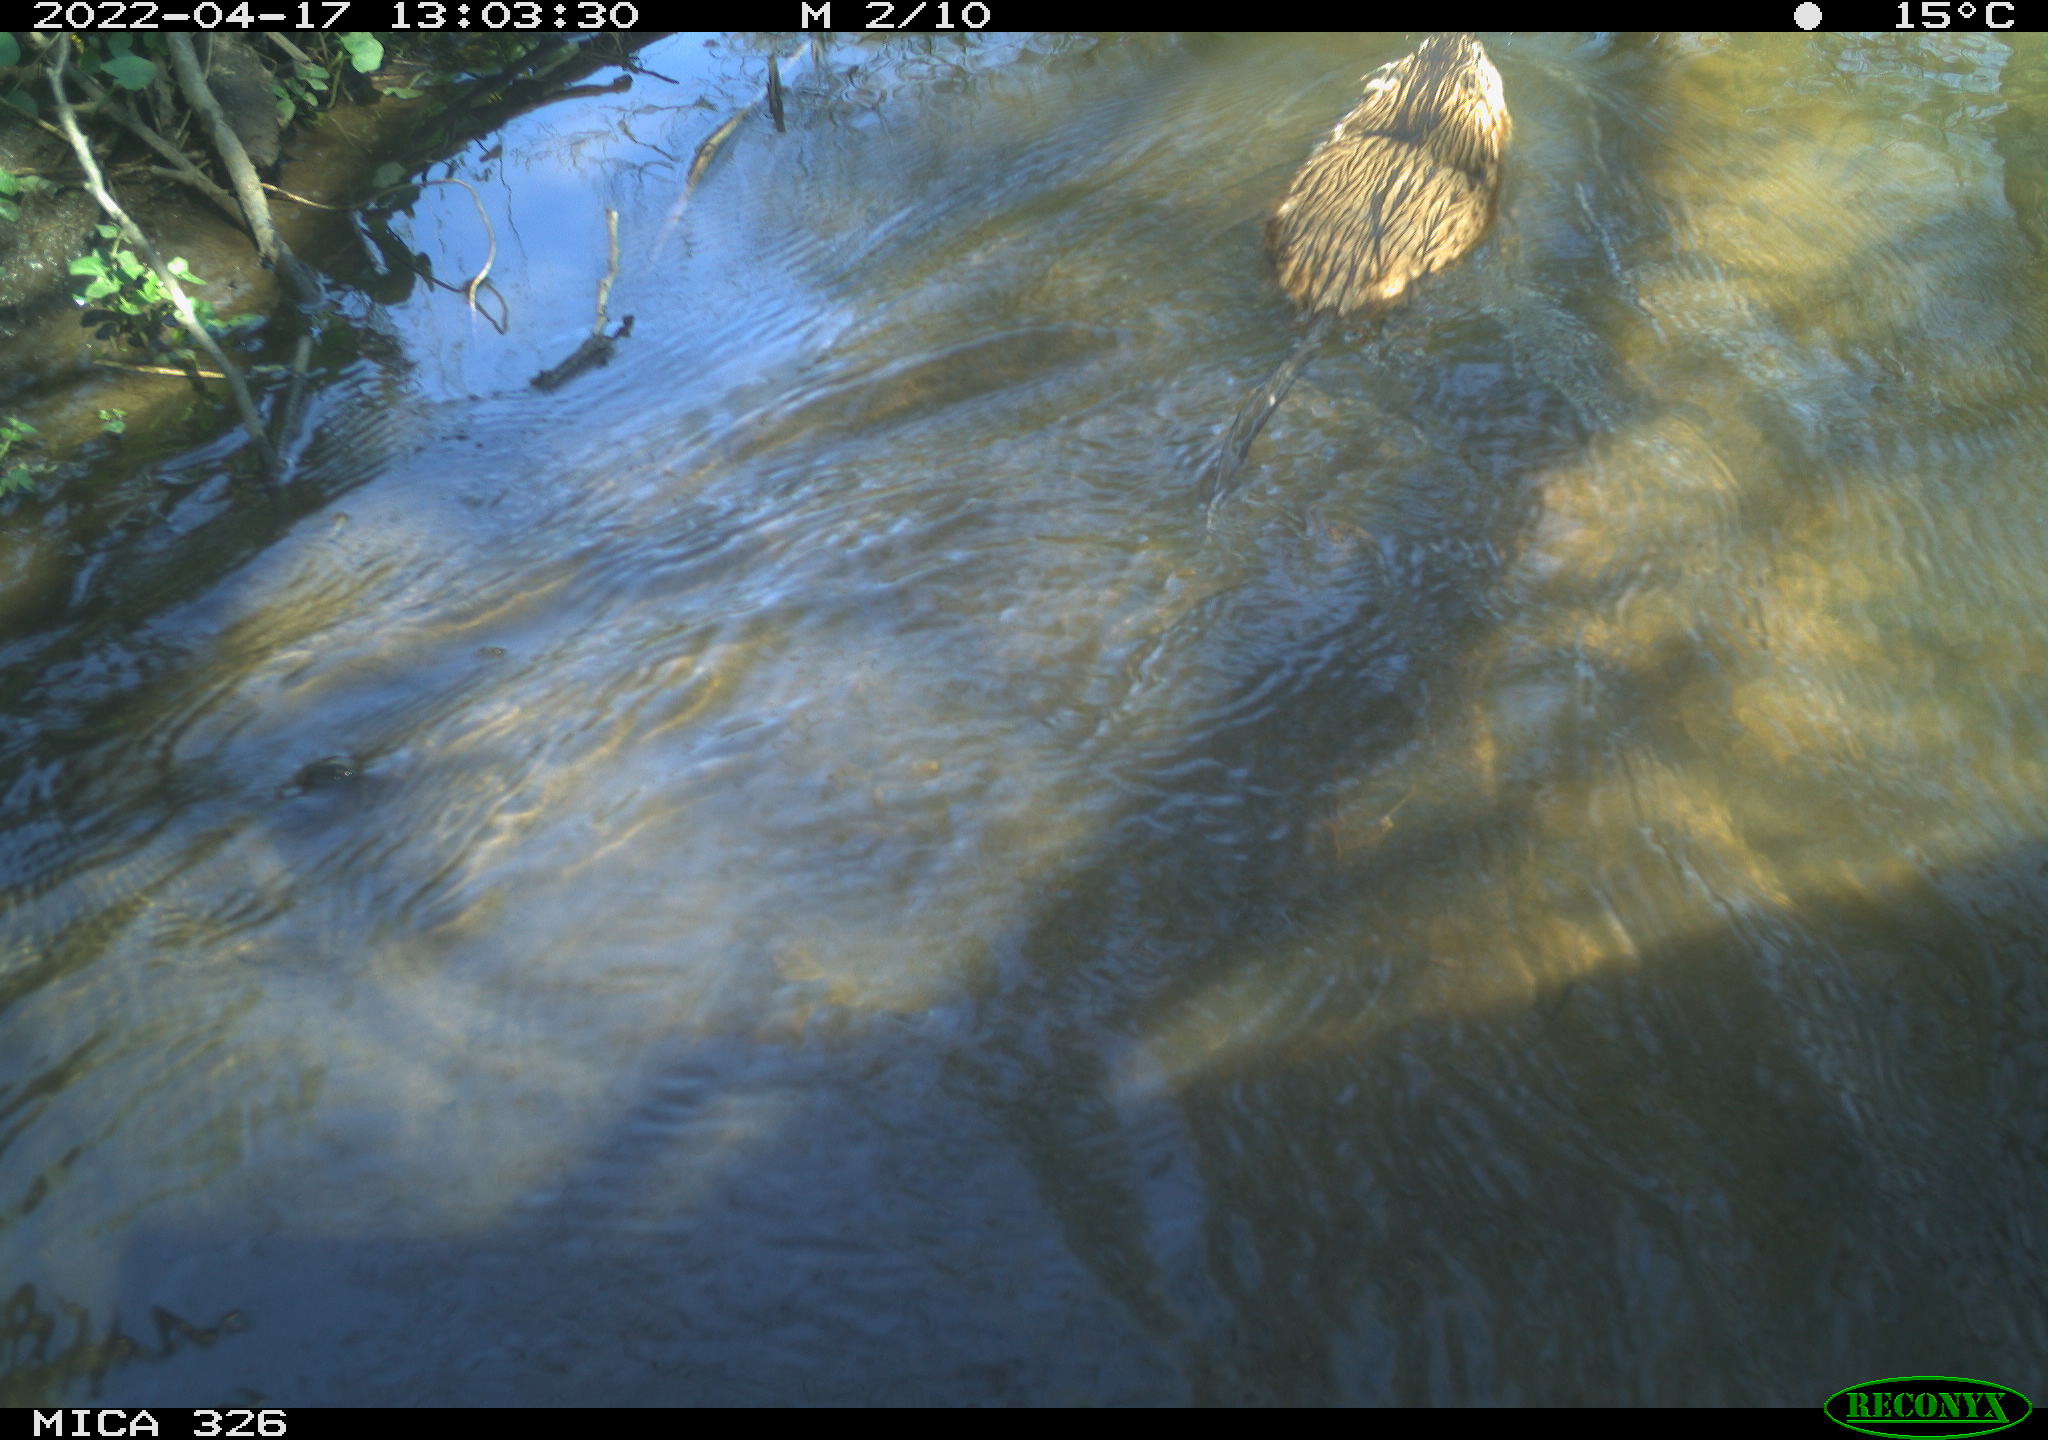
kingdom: Animalia
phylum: Chordata
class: Mammalia
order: Rodentia
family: Cricetidae
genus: Ondatra
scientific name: Ondatra zibethicus
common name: Muskrat
